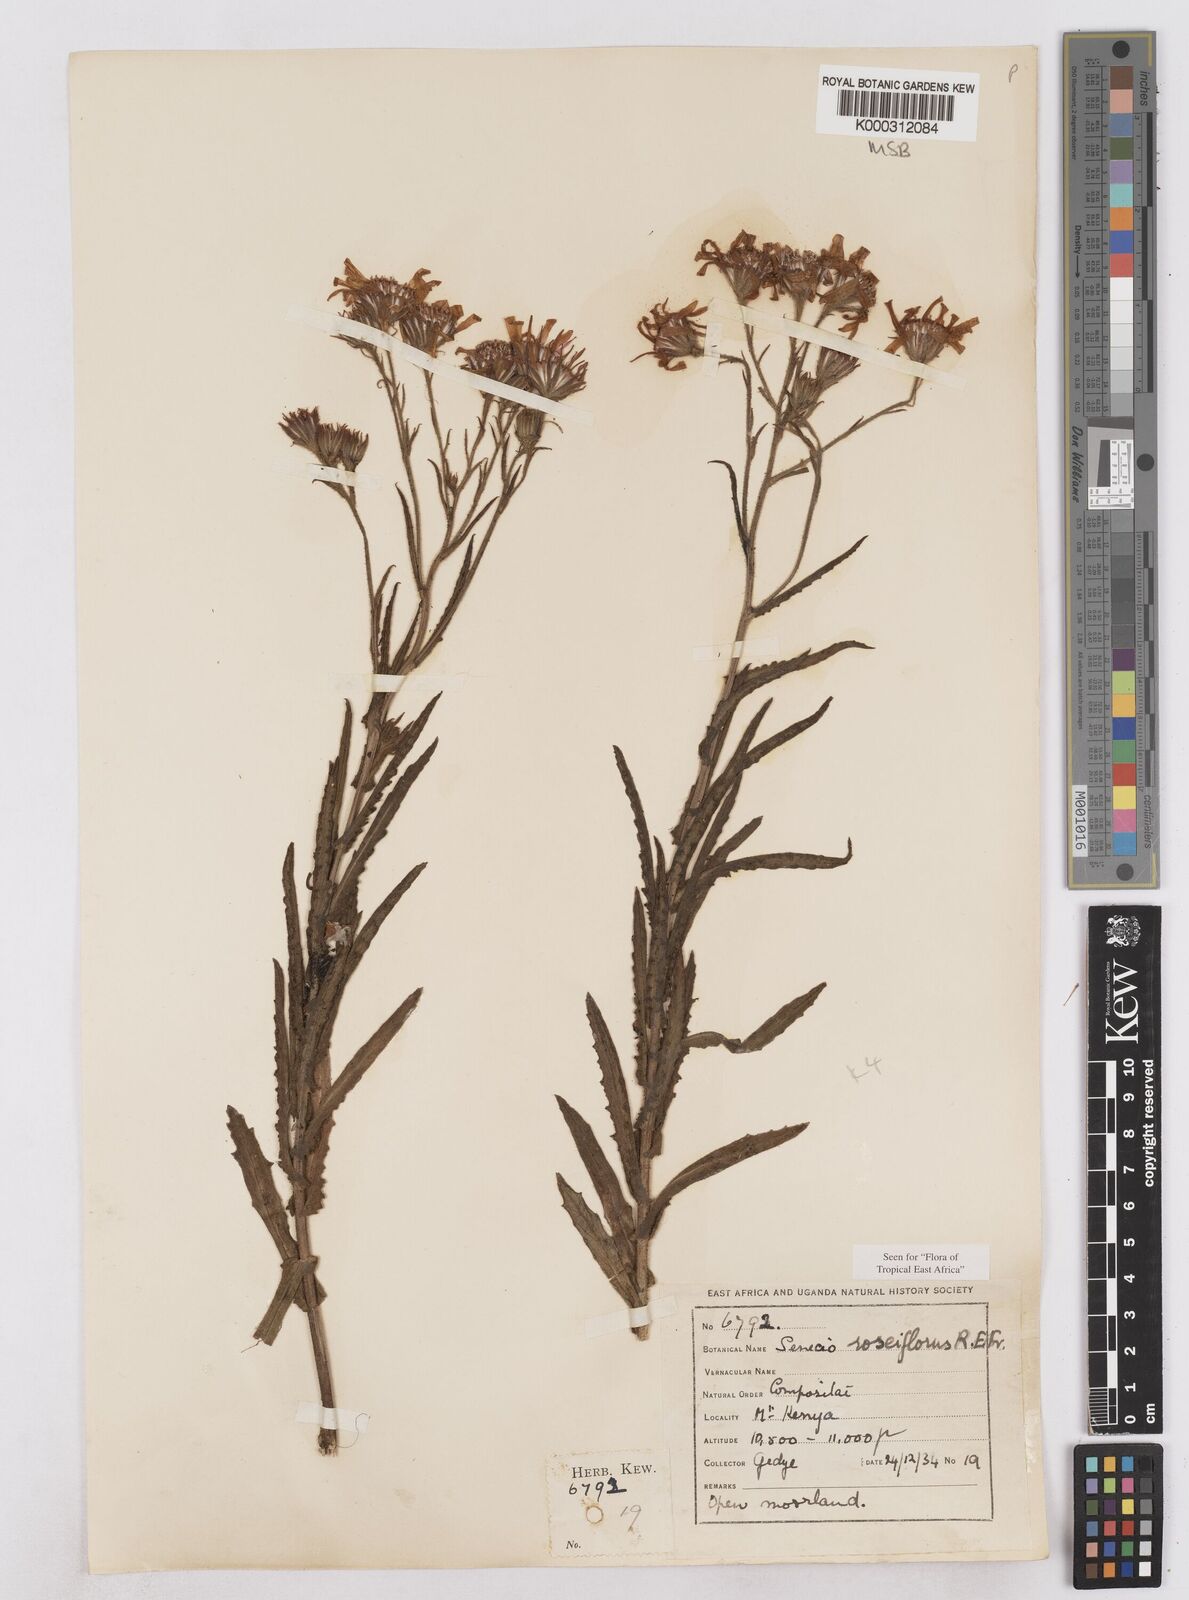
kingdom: Plantae
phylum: Tracheophyta
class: Magnoliopsida
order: Asterales
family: Asteraceae
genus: Senecio
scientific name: Senecio roseiflorus
